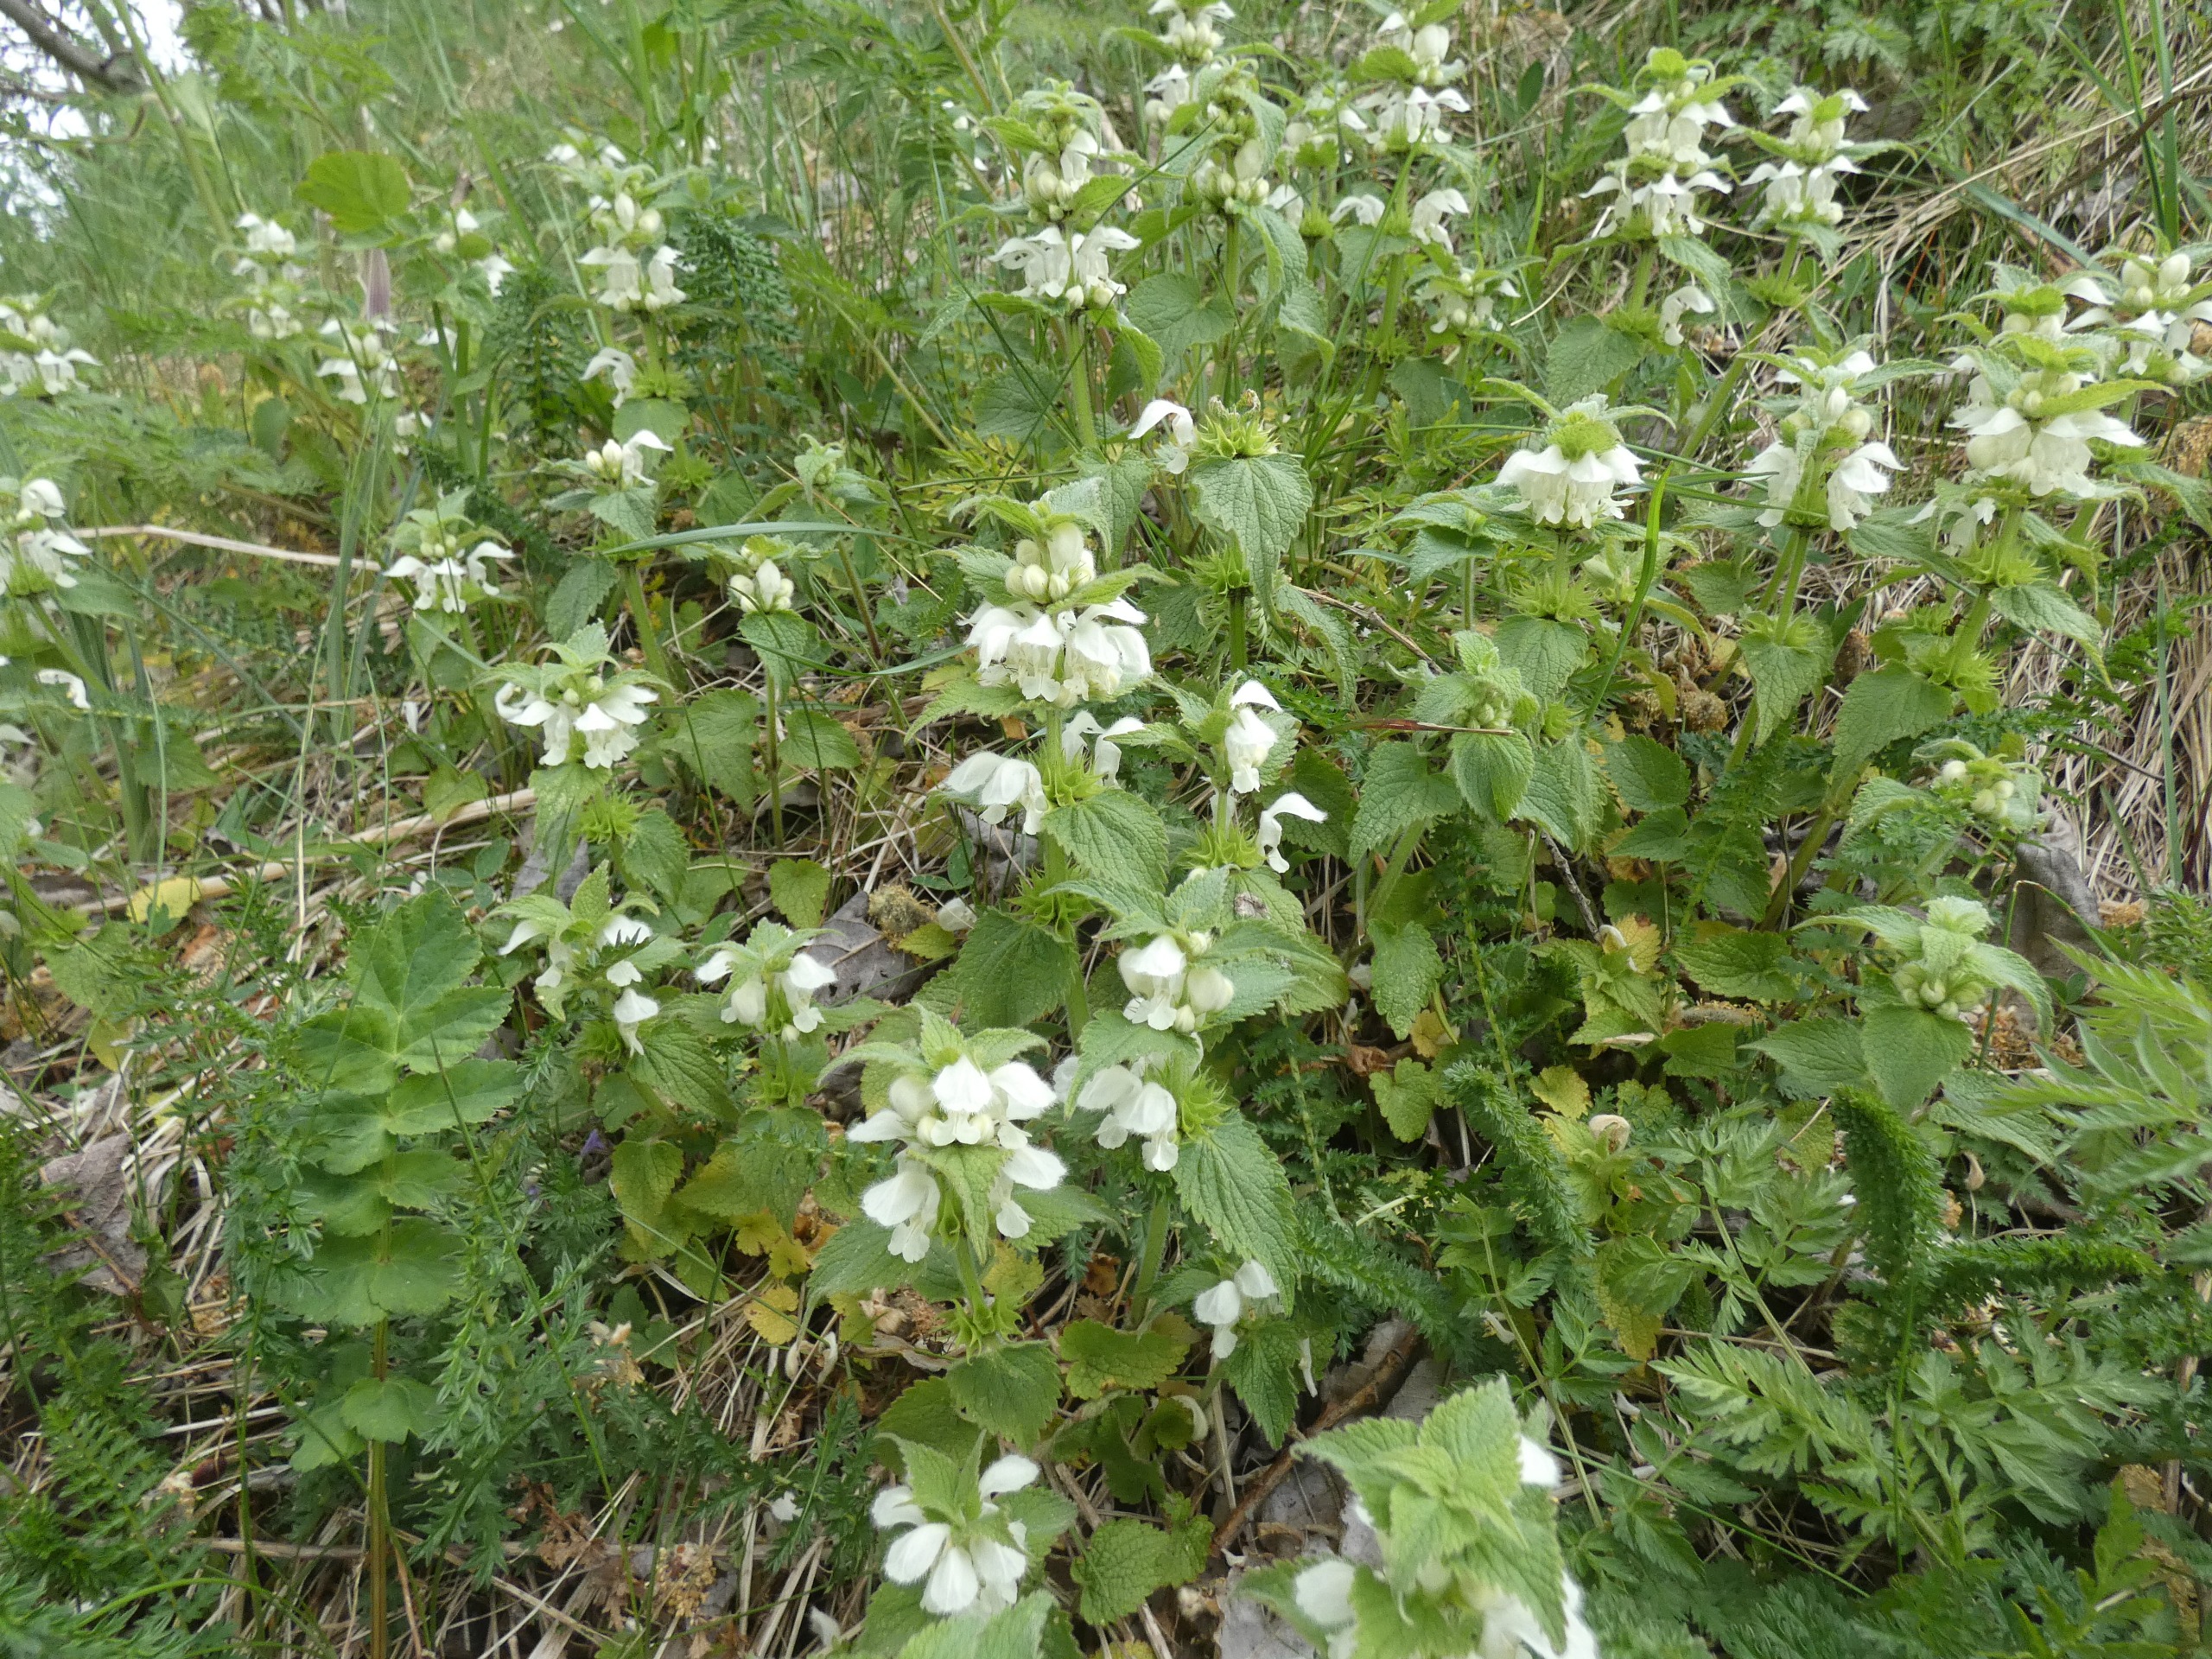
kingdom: Plantae
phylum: Tracheophyta
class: Magnoliopsida
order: Lamiales
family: Lamiaceae
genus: Lamium
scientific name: Lamium album
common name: Døvnælde
